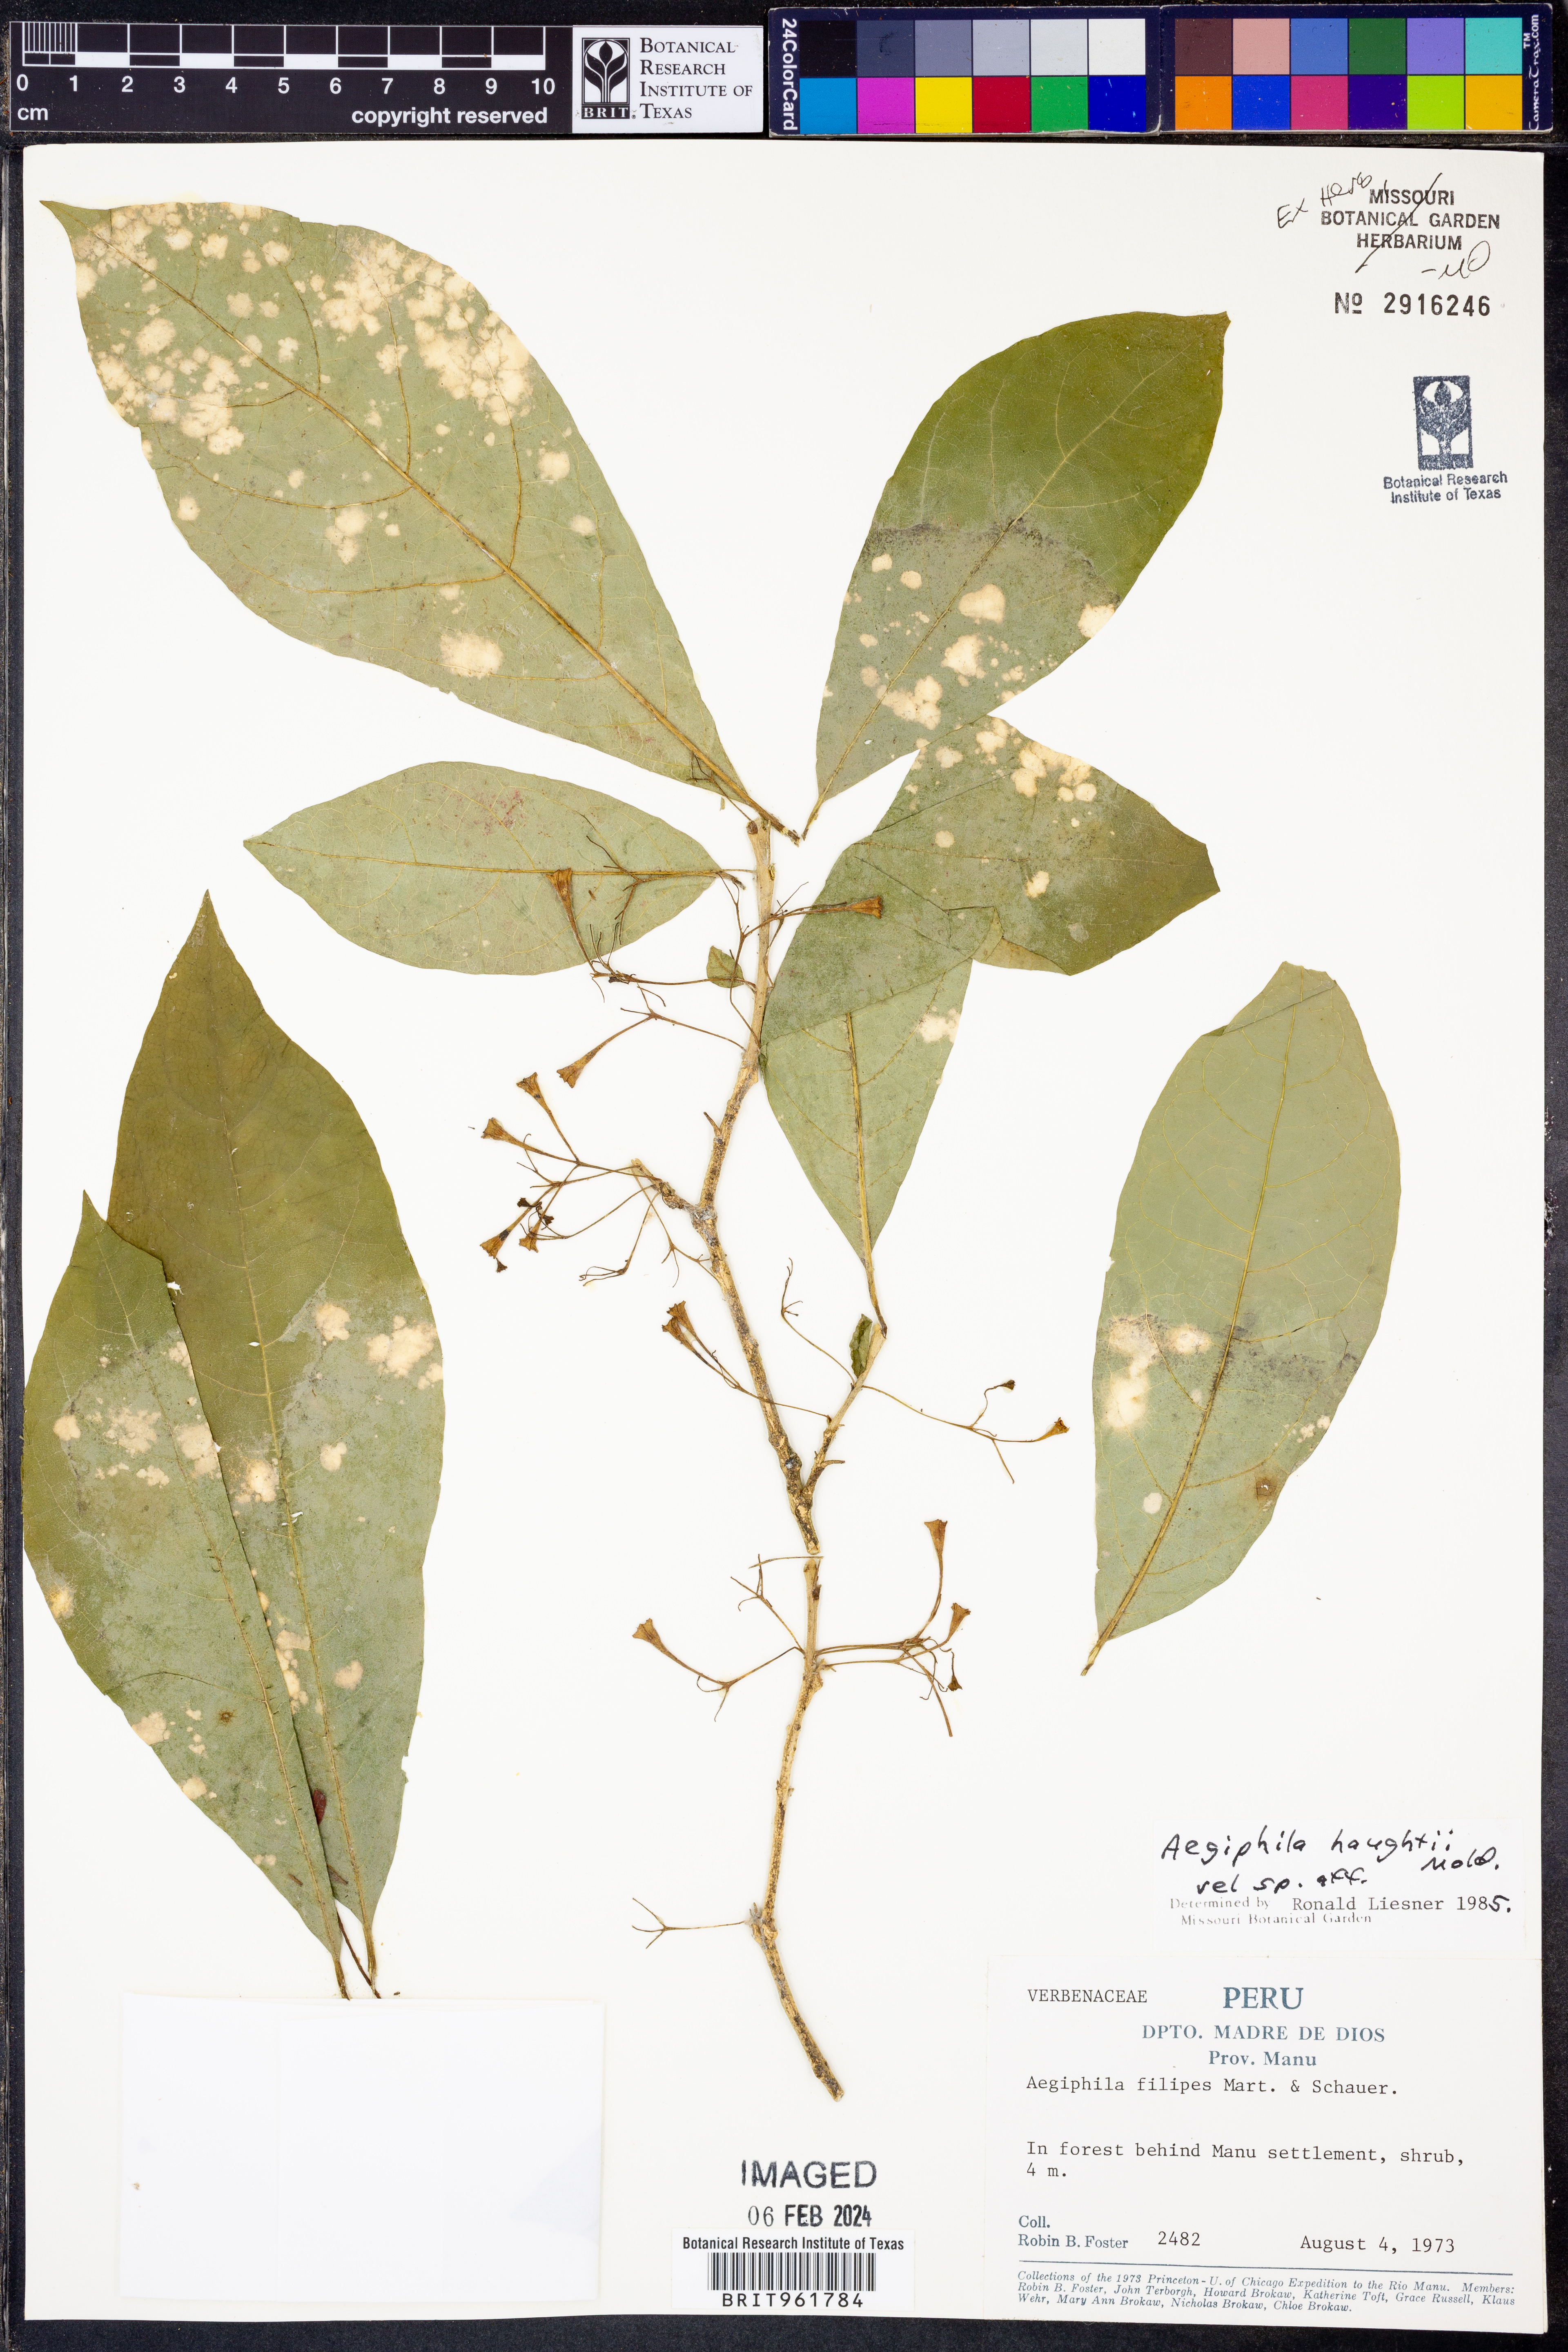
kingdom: Plantae
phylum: Tracheophyta
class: Magnoliopsida
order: Lamiales
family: Lamiaceae
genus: Aegiphila
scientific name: Aegiphila
